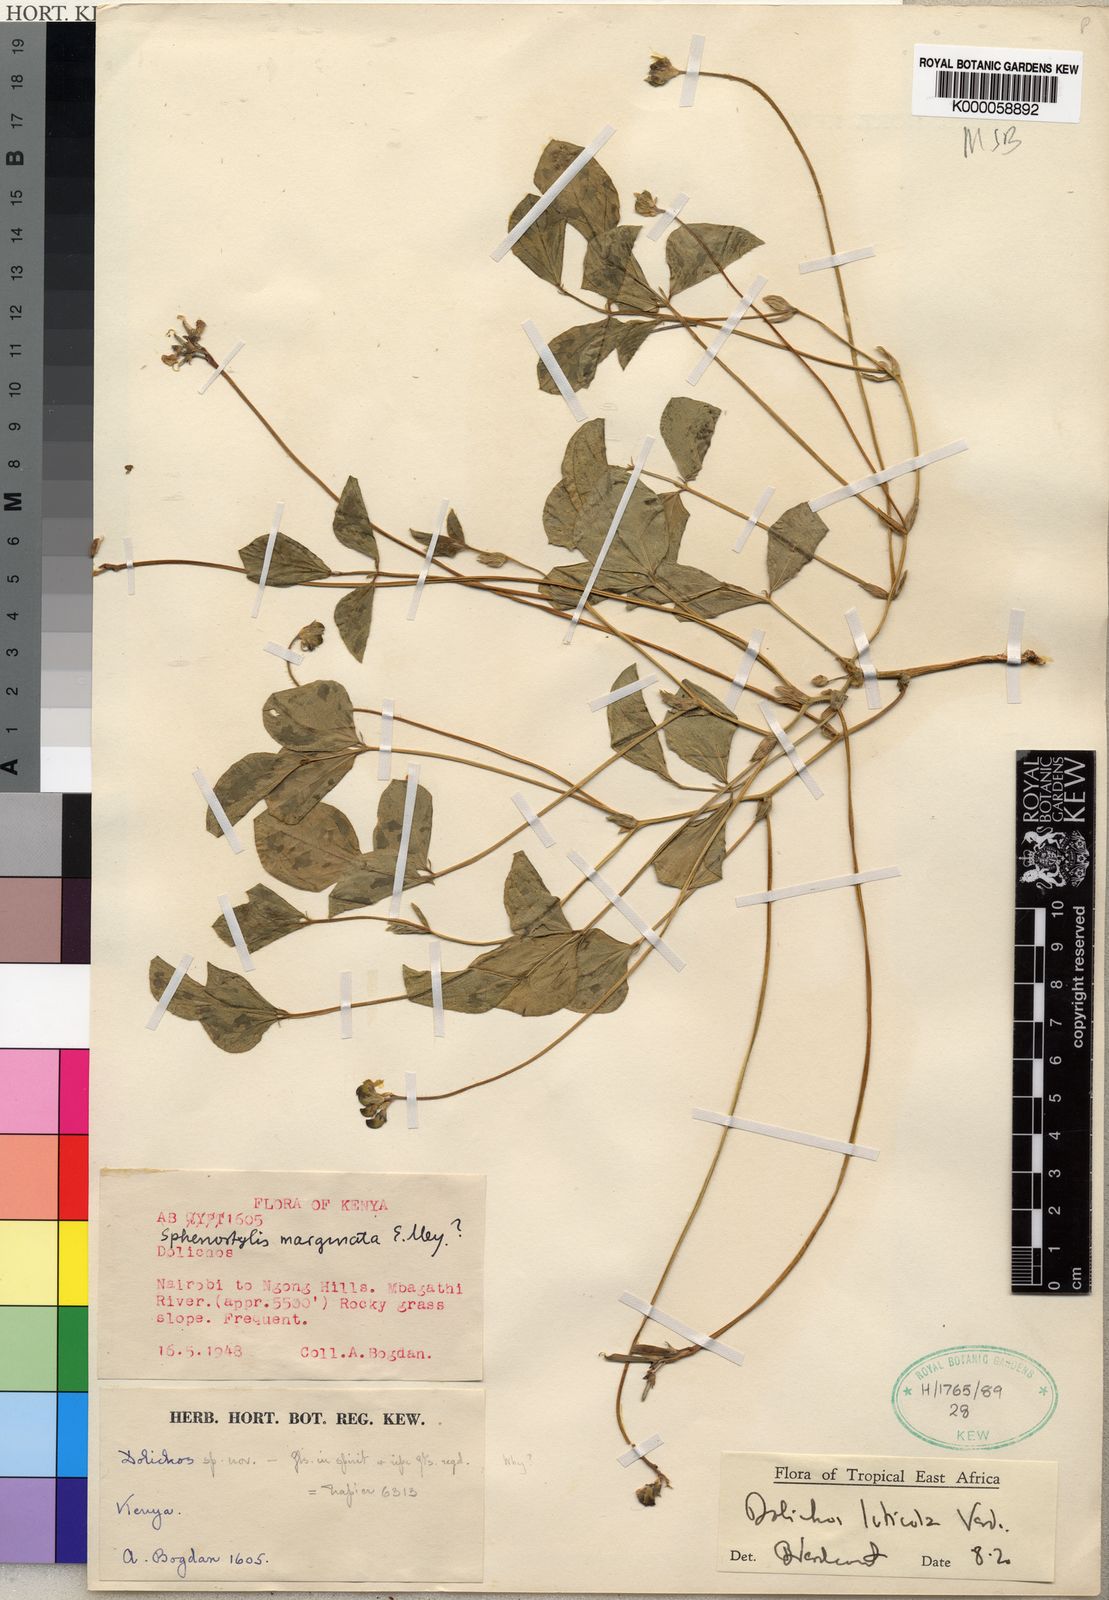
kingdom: Plantae
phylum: Tracheophyta
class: Magnoliopsida
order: Fabales
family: Fabaceae
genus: Dolichos
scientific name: Dolichos luticola
